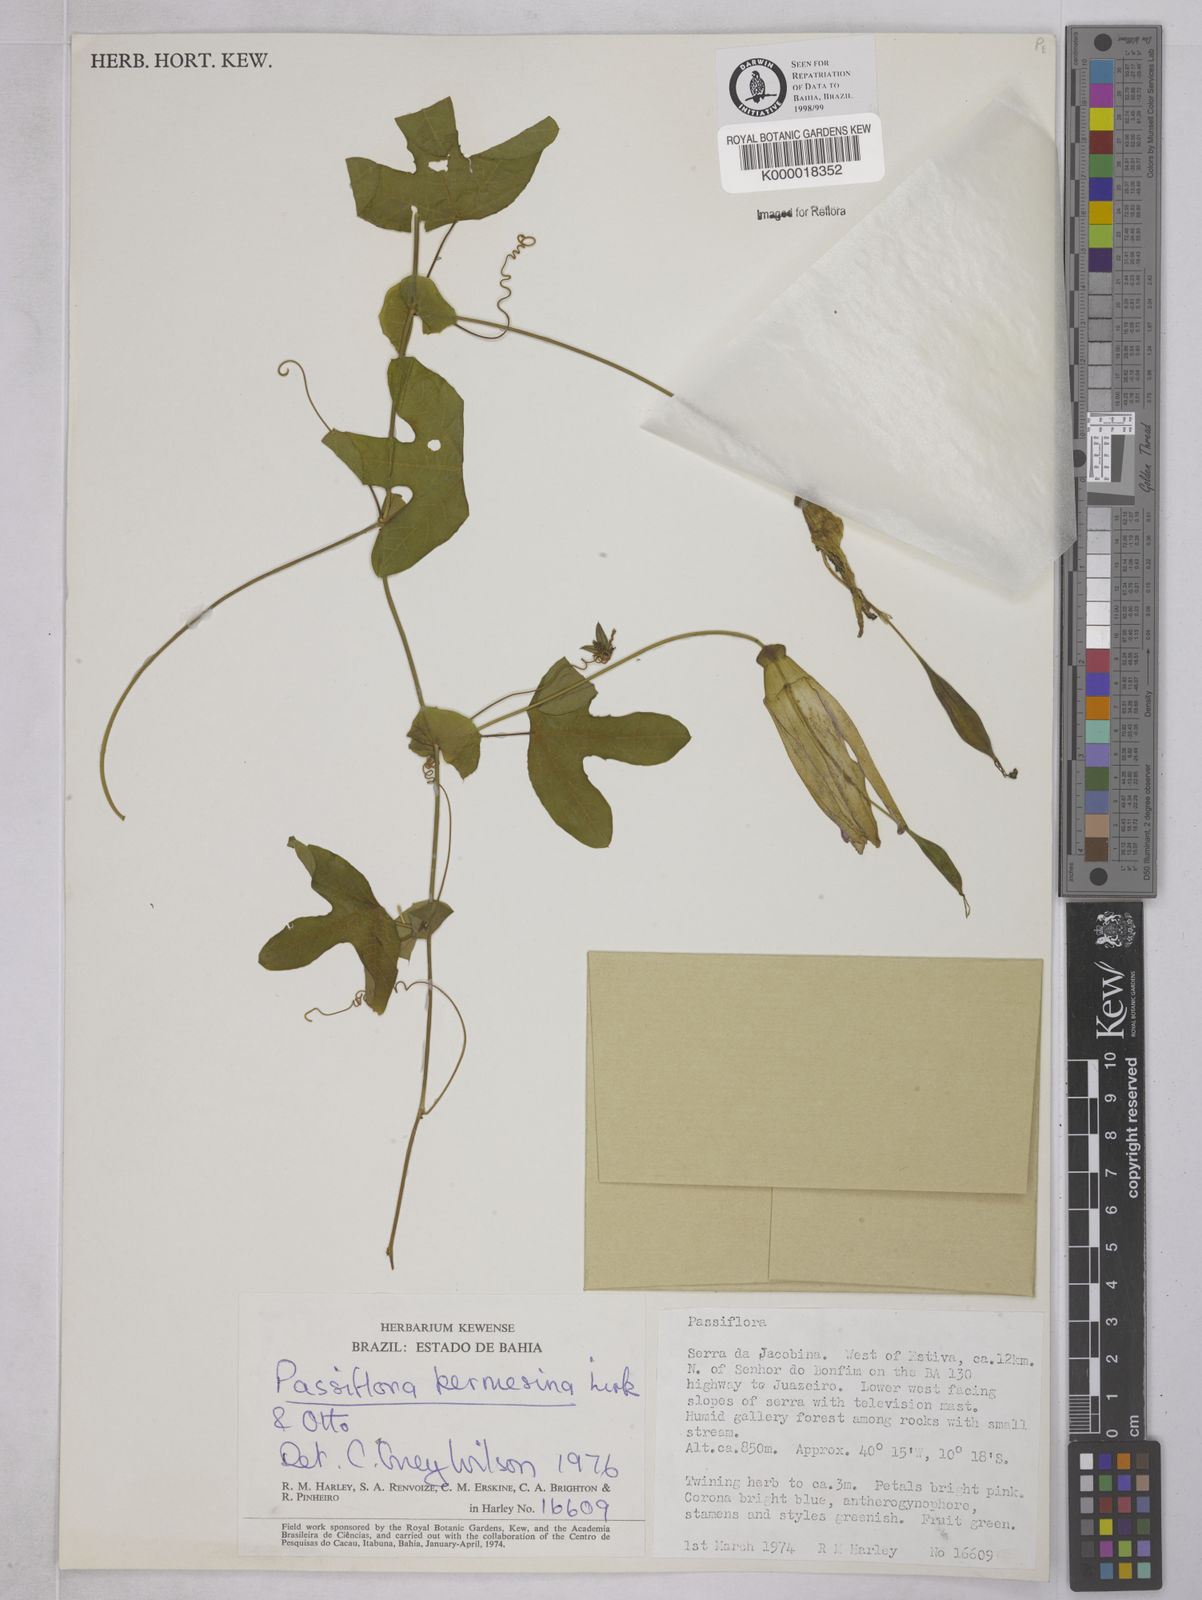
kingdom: Plantae
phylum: Tracheophyta
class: Magnoliopsida
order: Malpighiales
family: Passifloraceae
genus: Passiflora
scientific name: Passiflora kermesina
